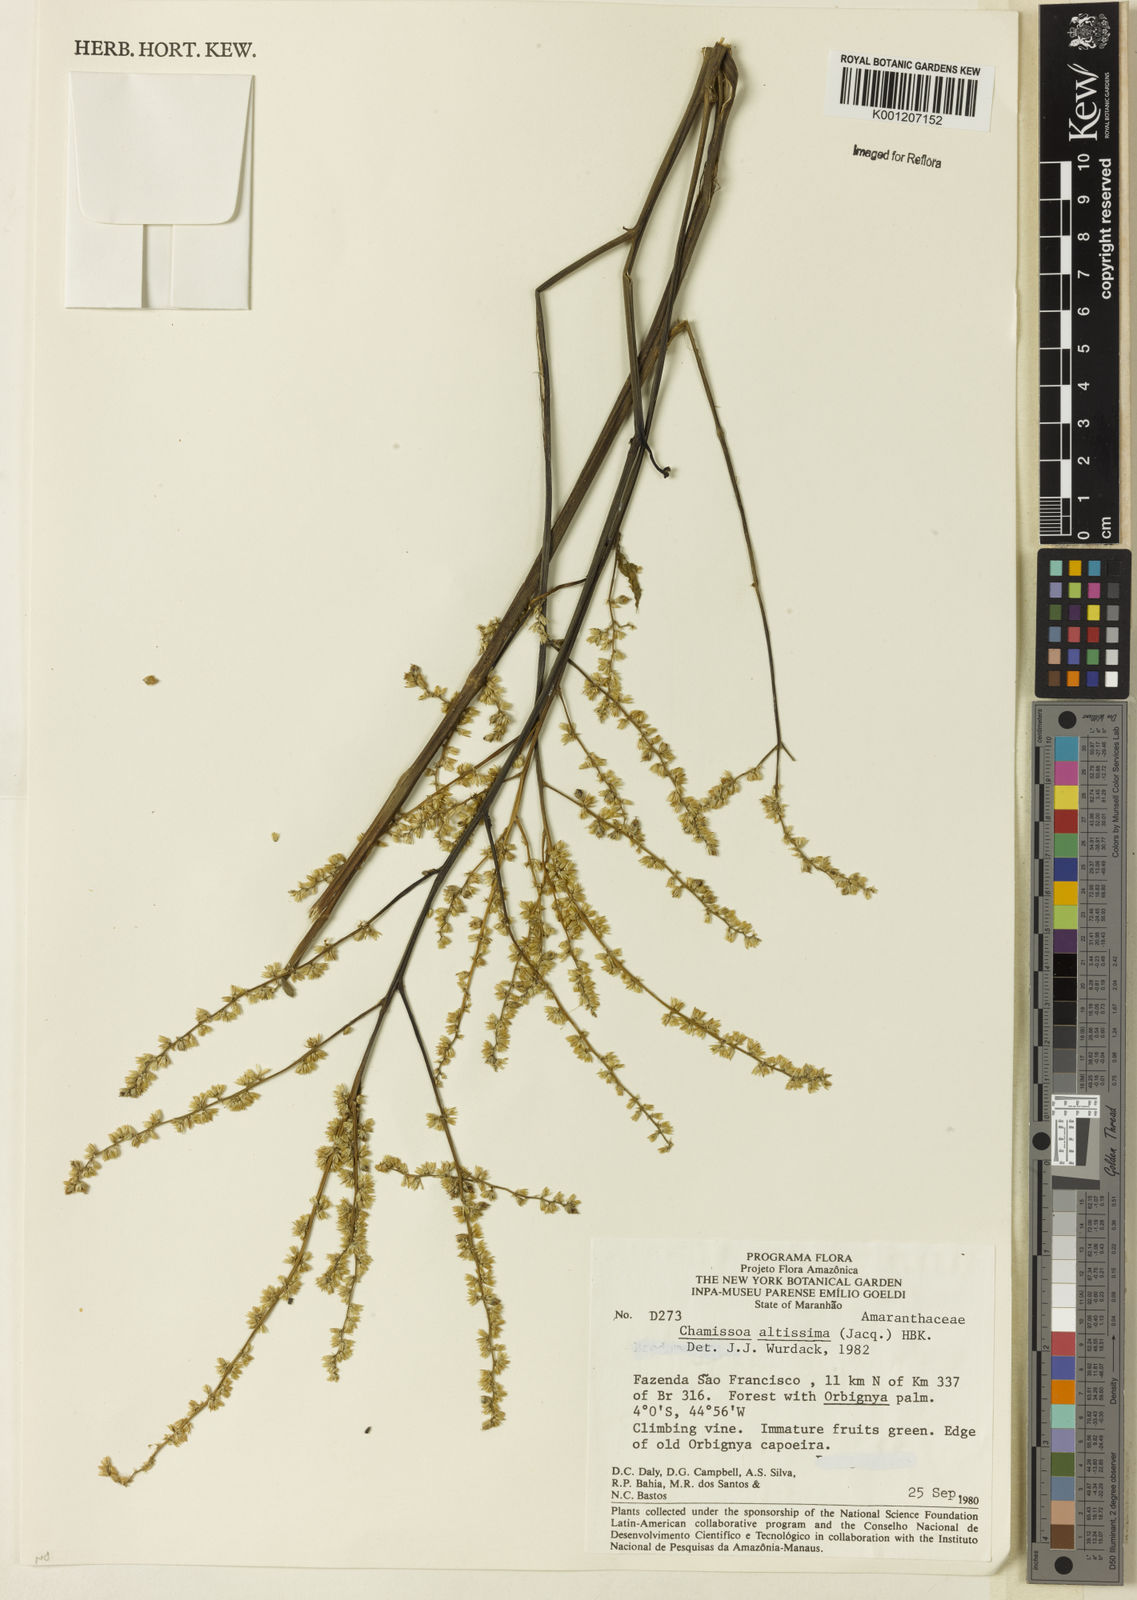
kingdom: Plantae
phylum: Tracheophyta
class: Magnoliopsida
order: Caryophyllales
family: Amaranthaceae
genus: Chamissoa
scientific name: Chamissoa altissima
